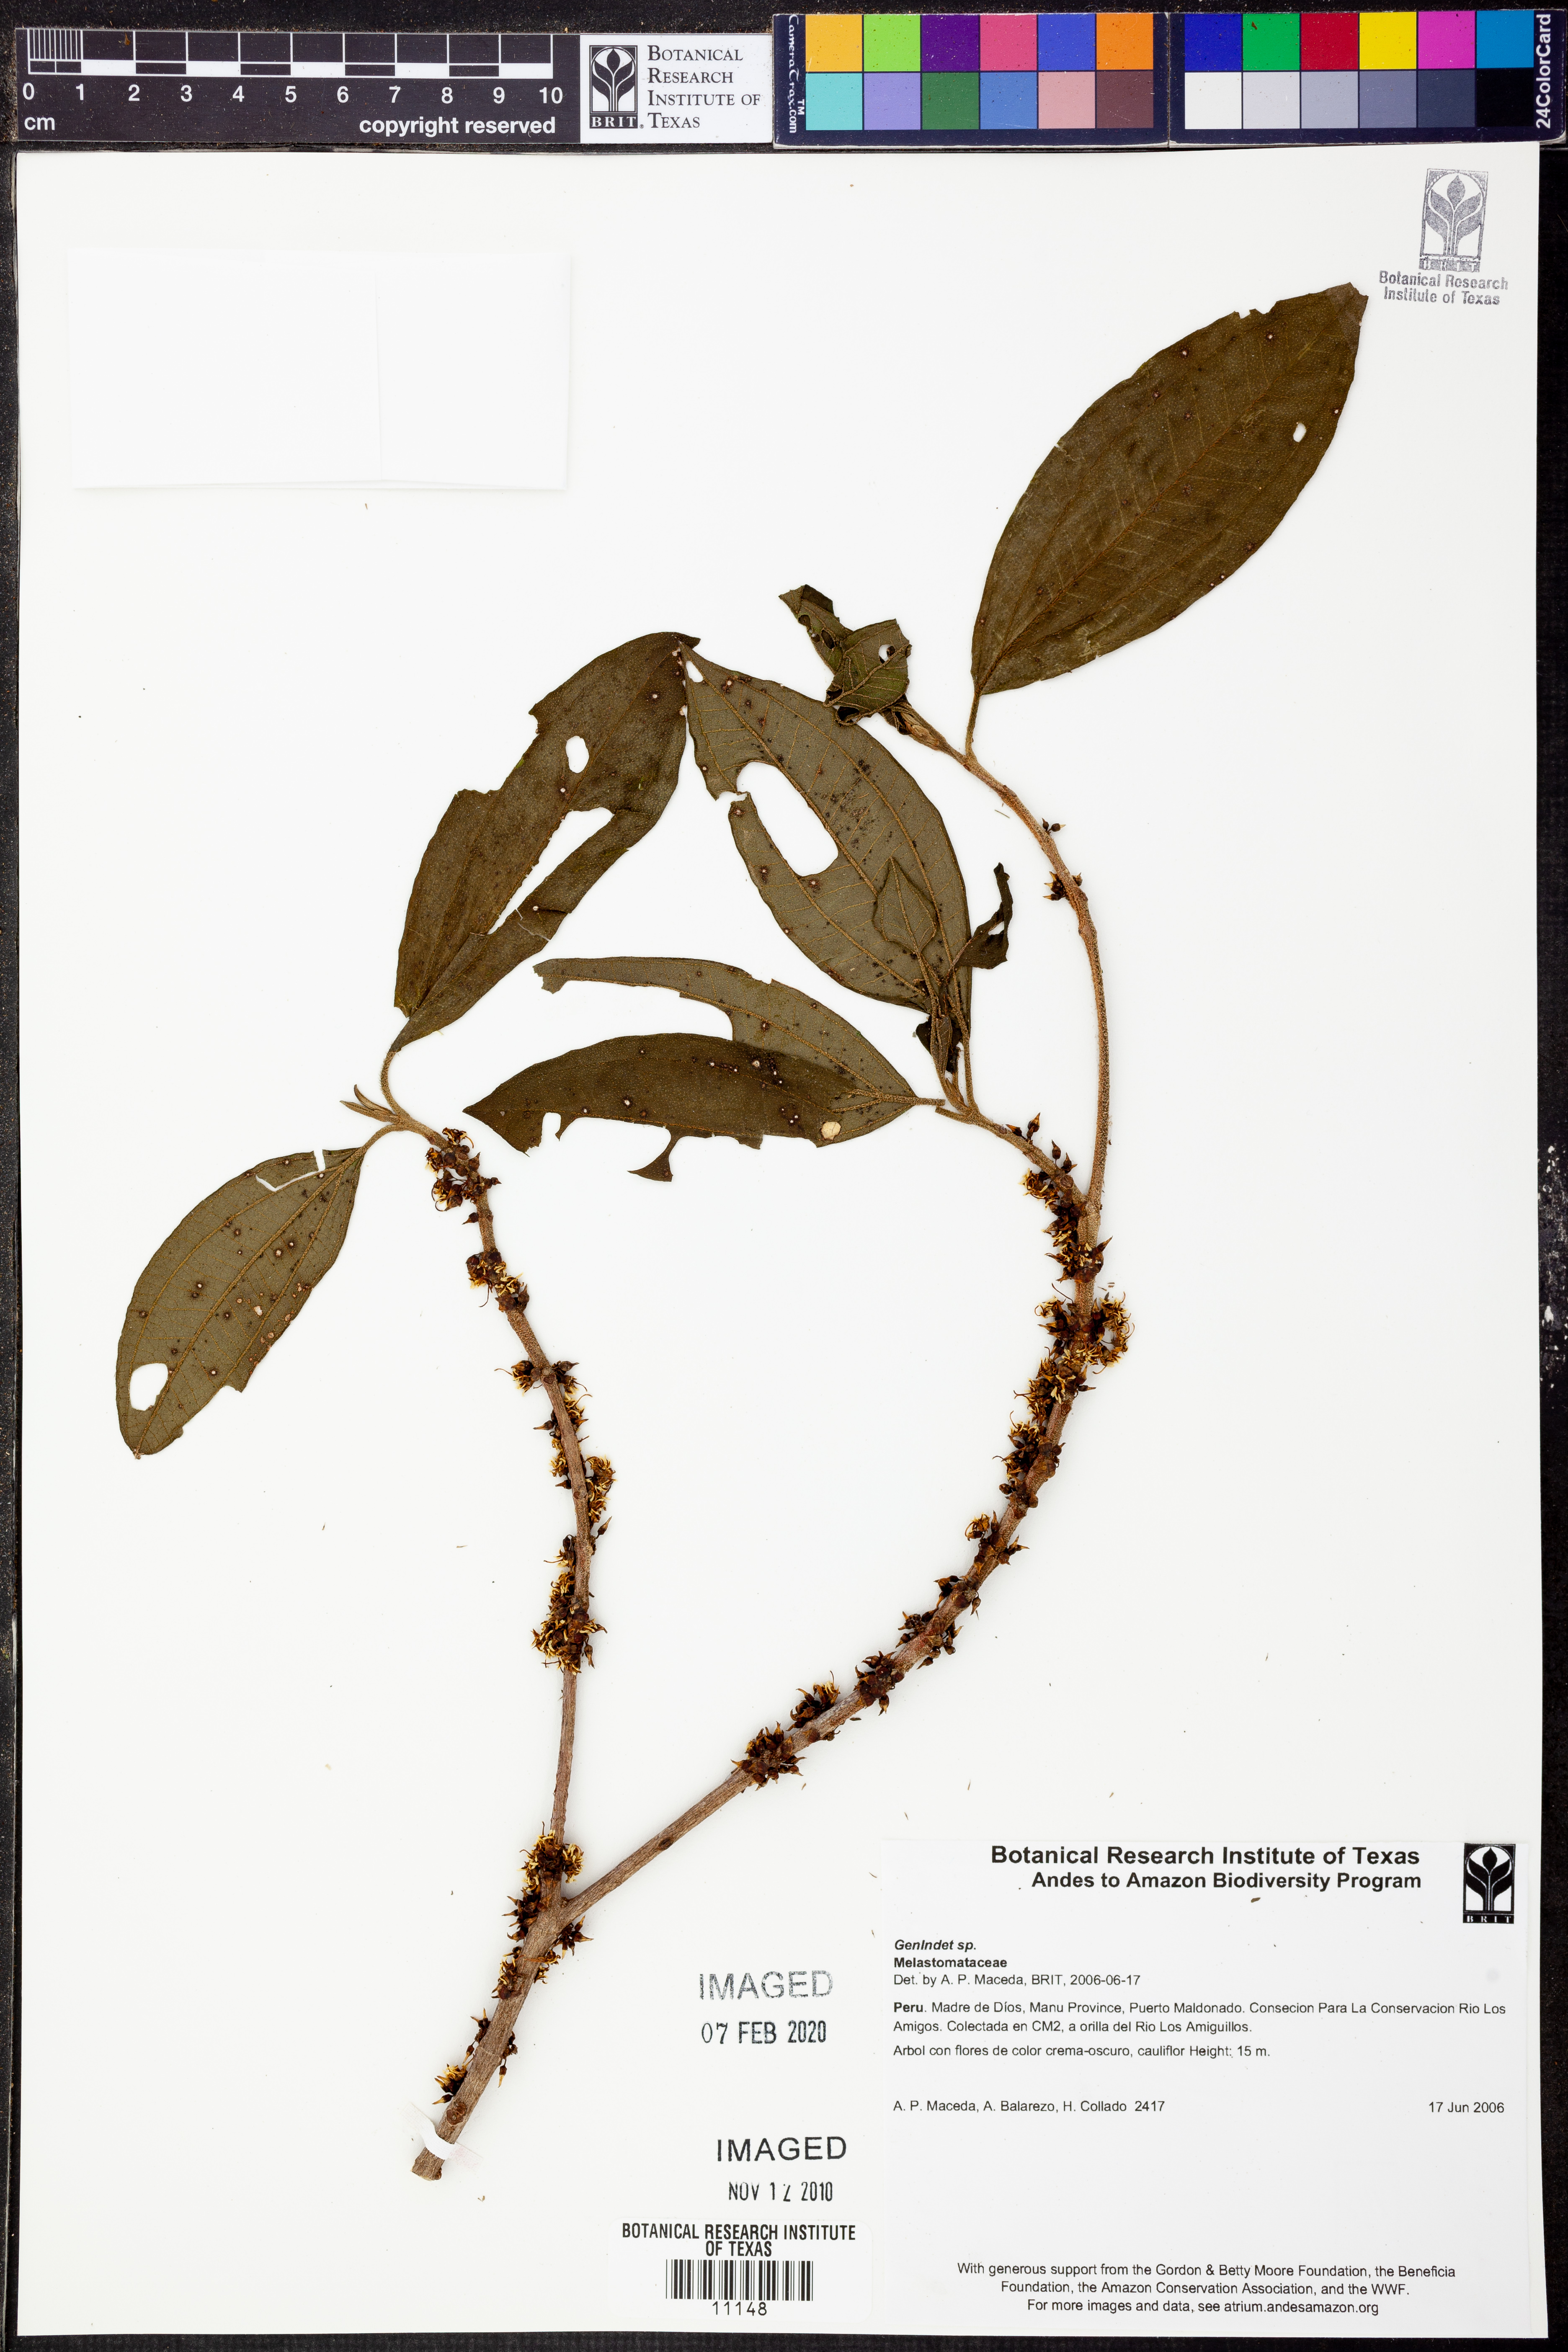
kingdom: Plantae
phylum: Tracheophyta
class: Magnoliopsida
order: Myrtales
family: Melastomataceae
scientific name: Melastomataceae
